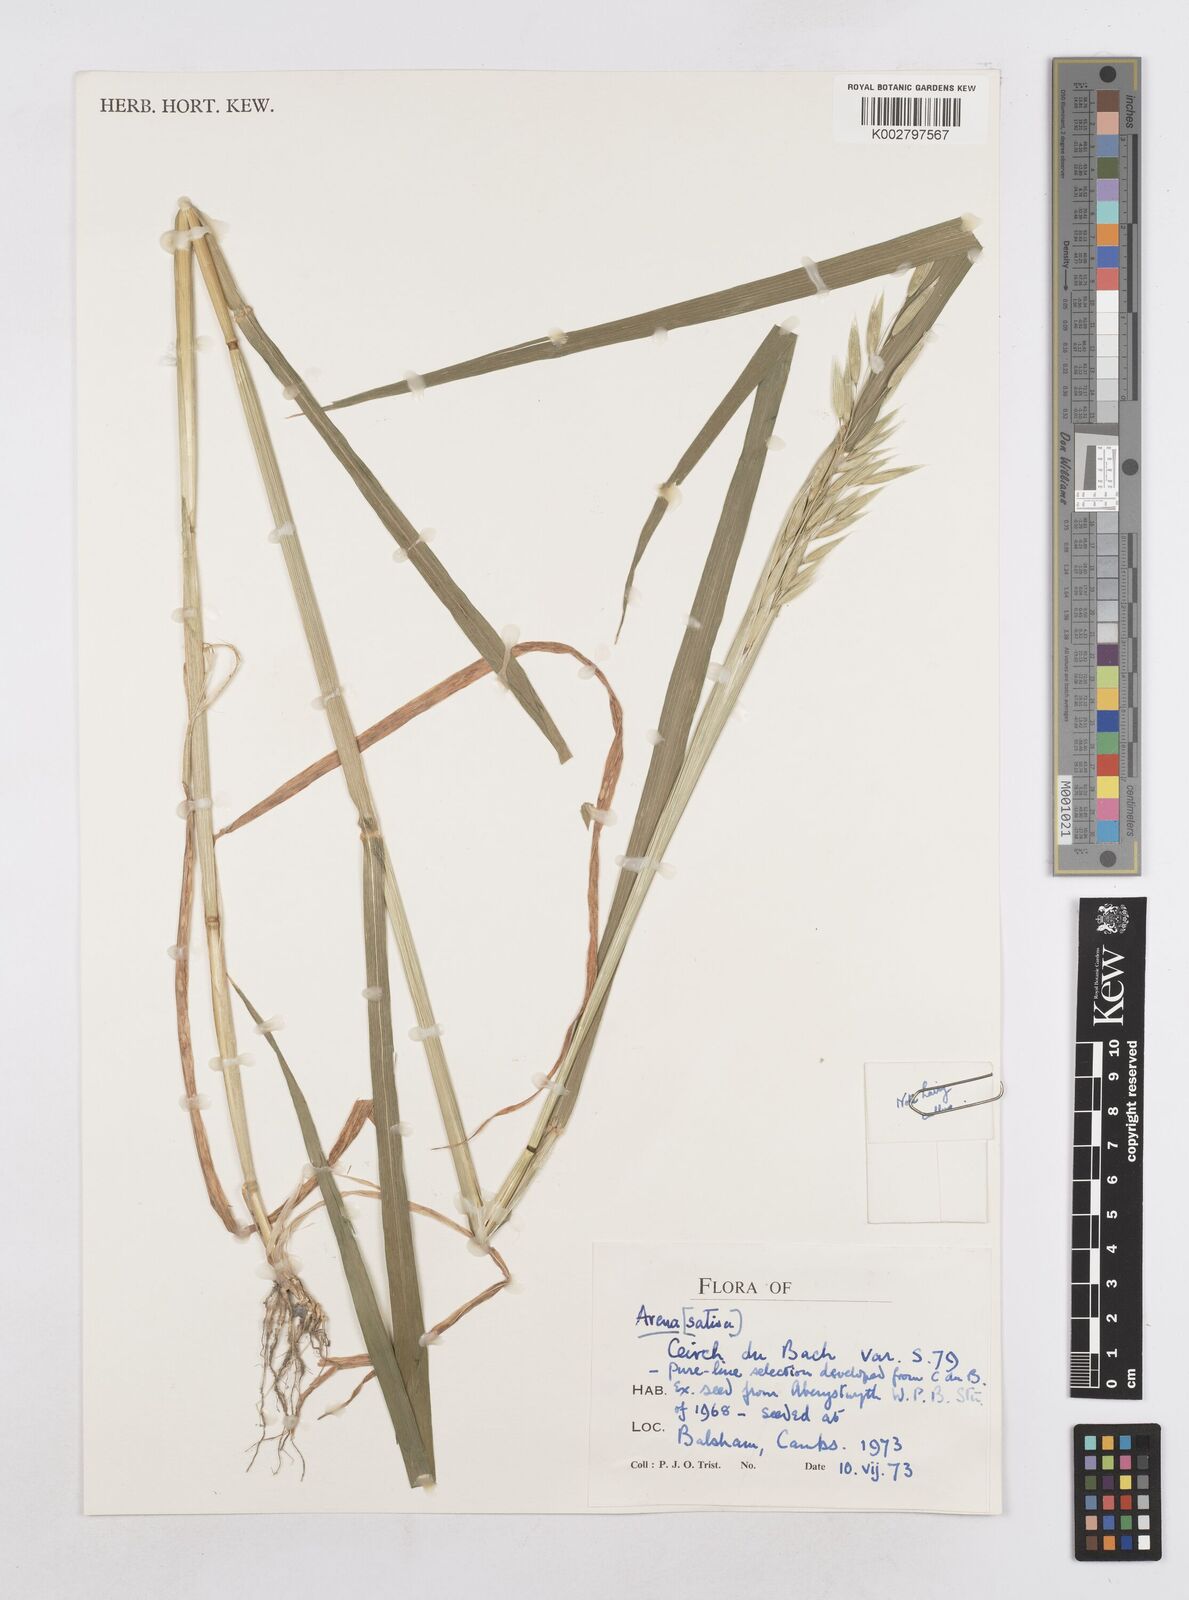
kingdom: Plantae
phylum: Tracheophyta
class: Liliopsida
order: Poales
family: Poaceae
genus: Avena
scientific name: Avena sativa
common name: Oat
